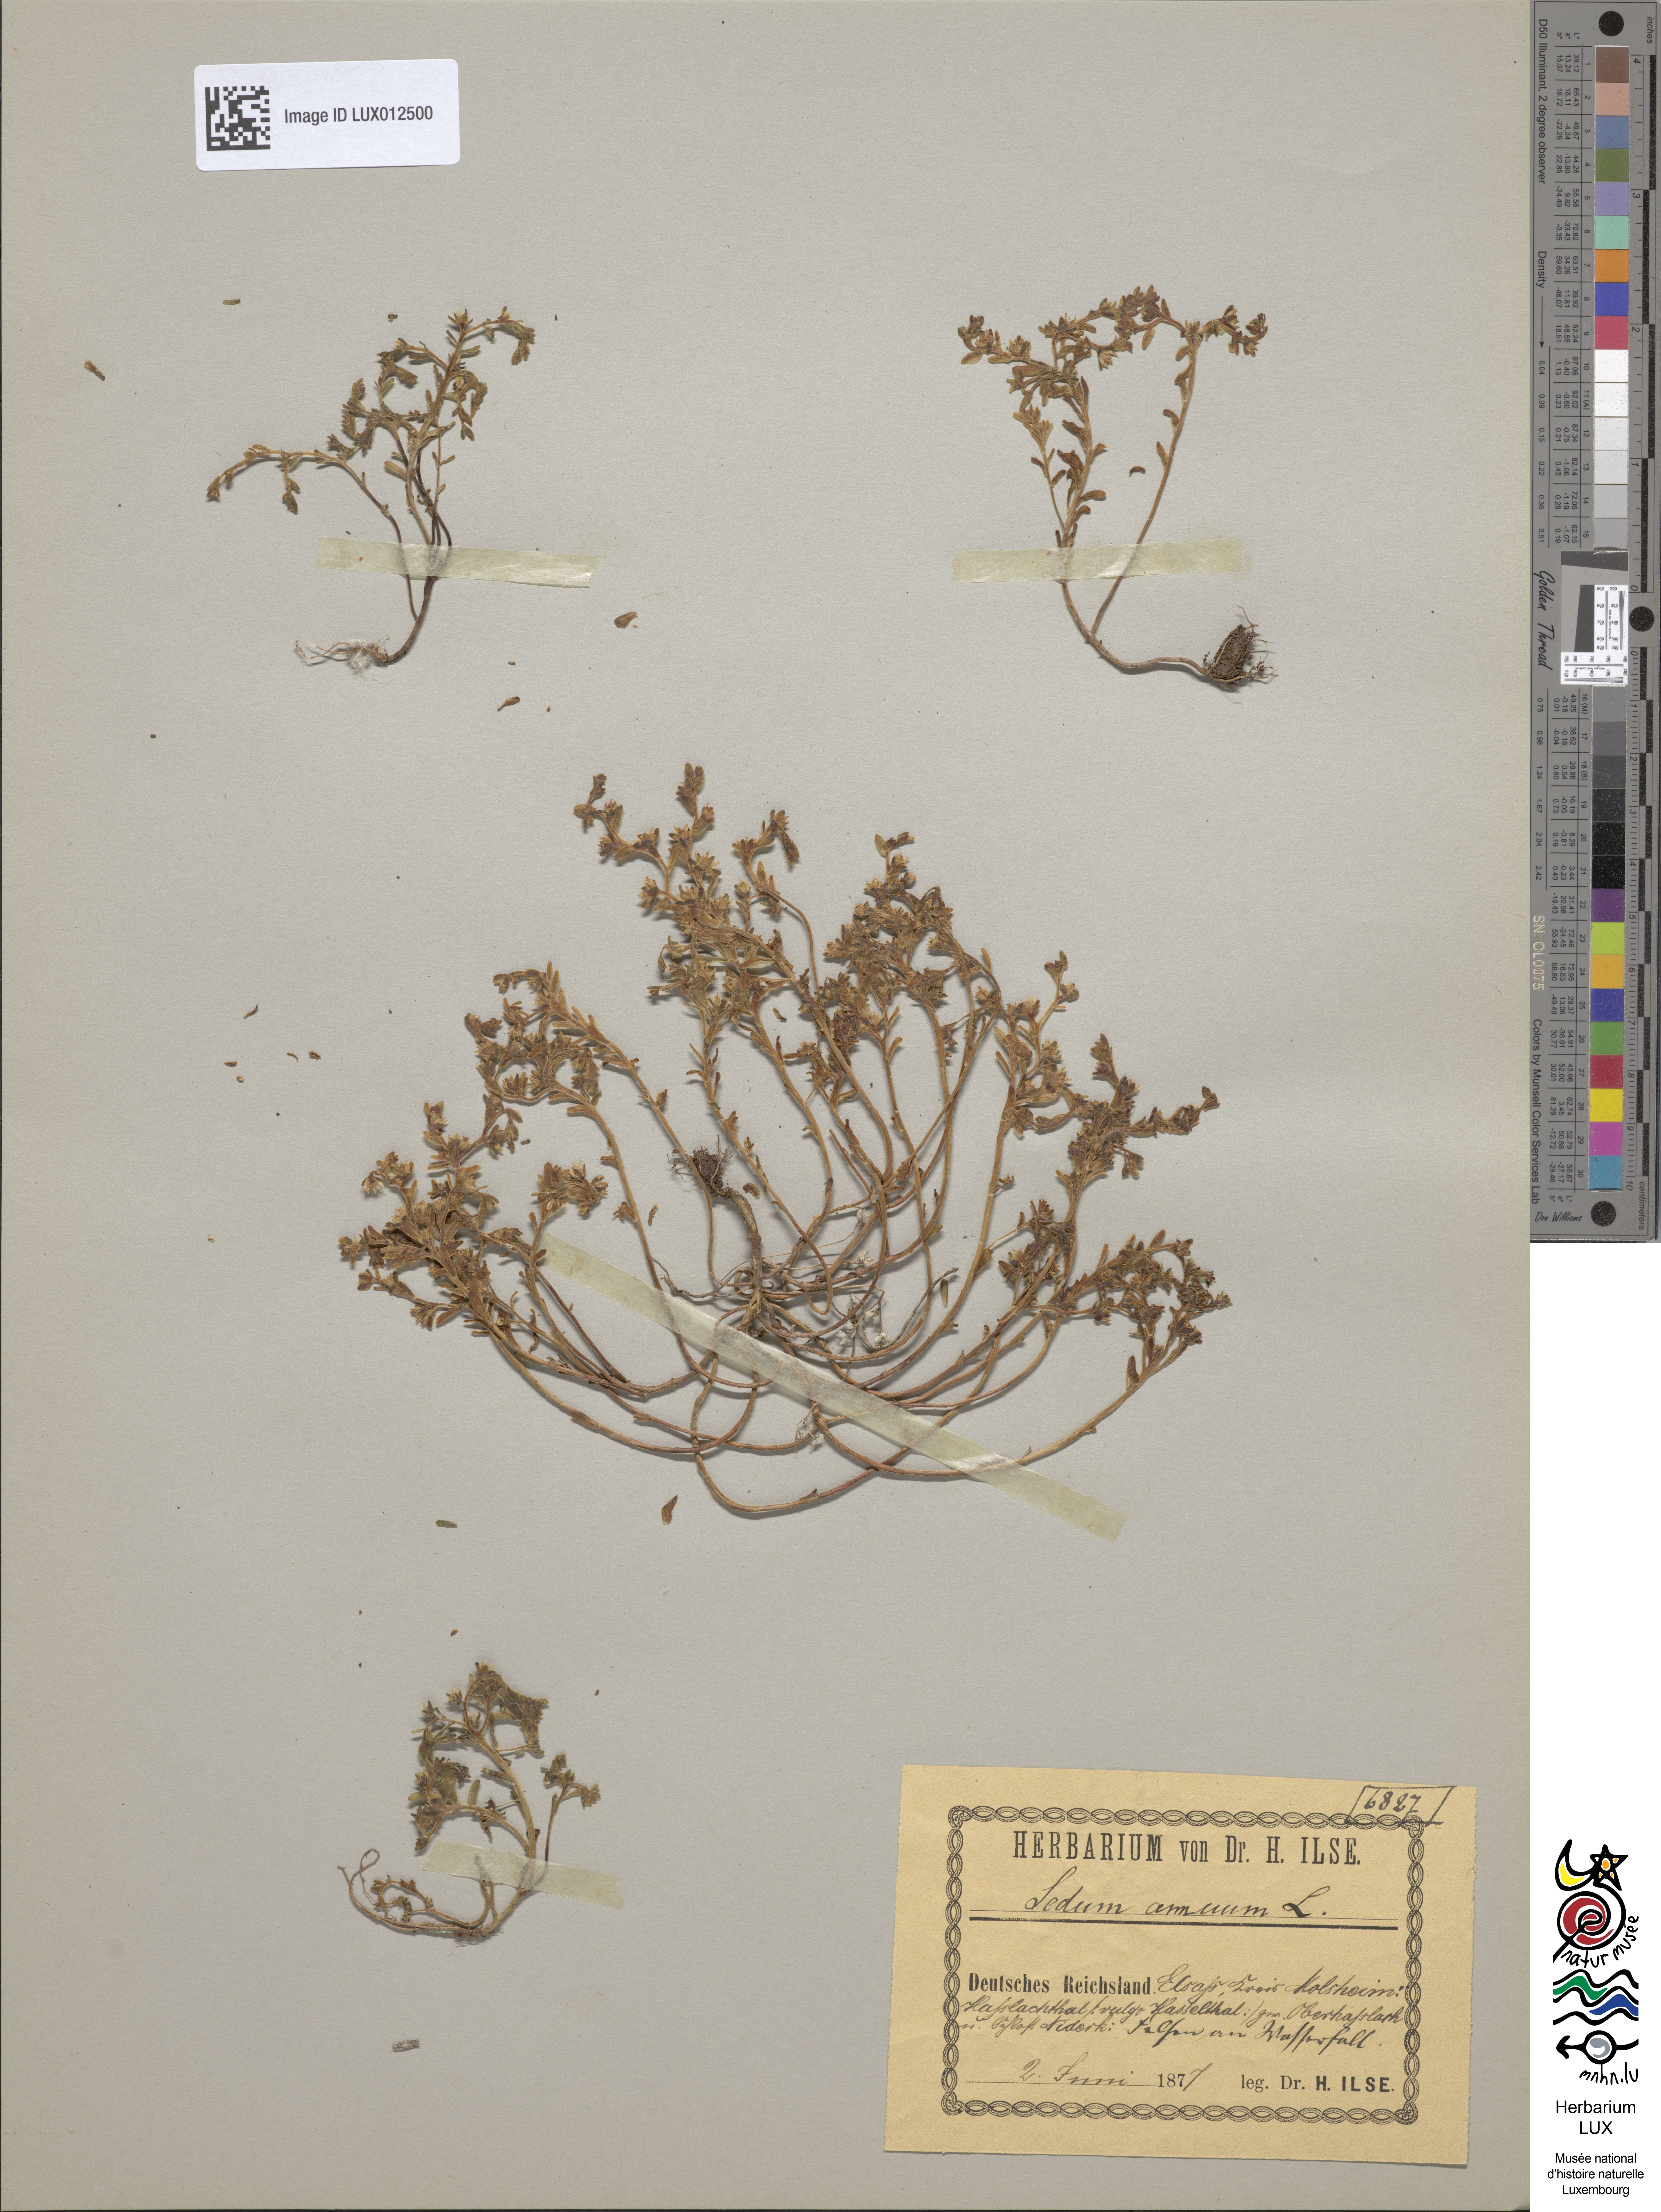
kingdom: Plantae
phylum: Tracheophyta
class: Magnoliopsida
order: Saxifragales
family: Crassulaceae
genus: Sedum
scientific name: Sedum annuum
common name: Annual stonecrop
